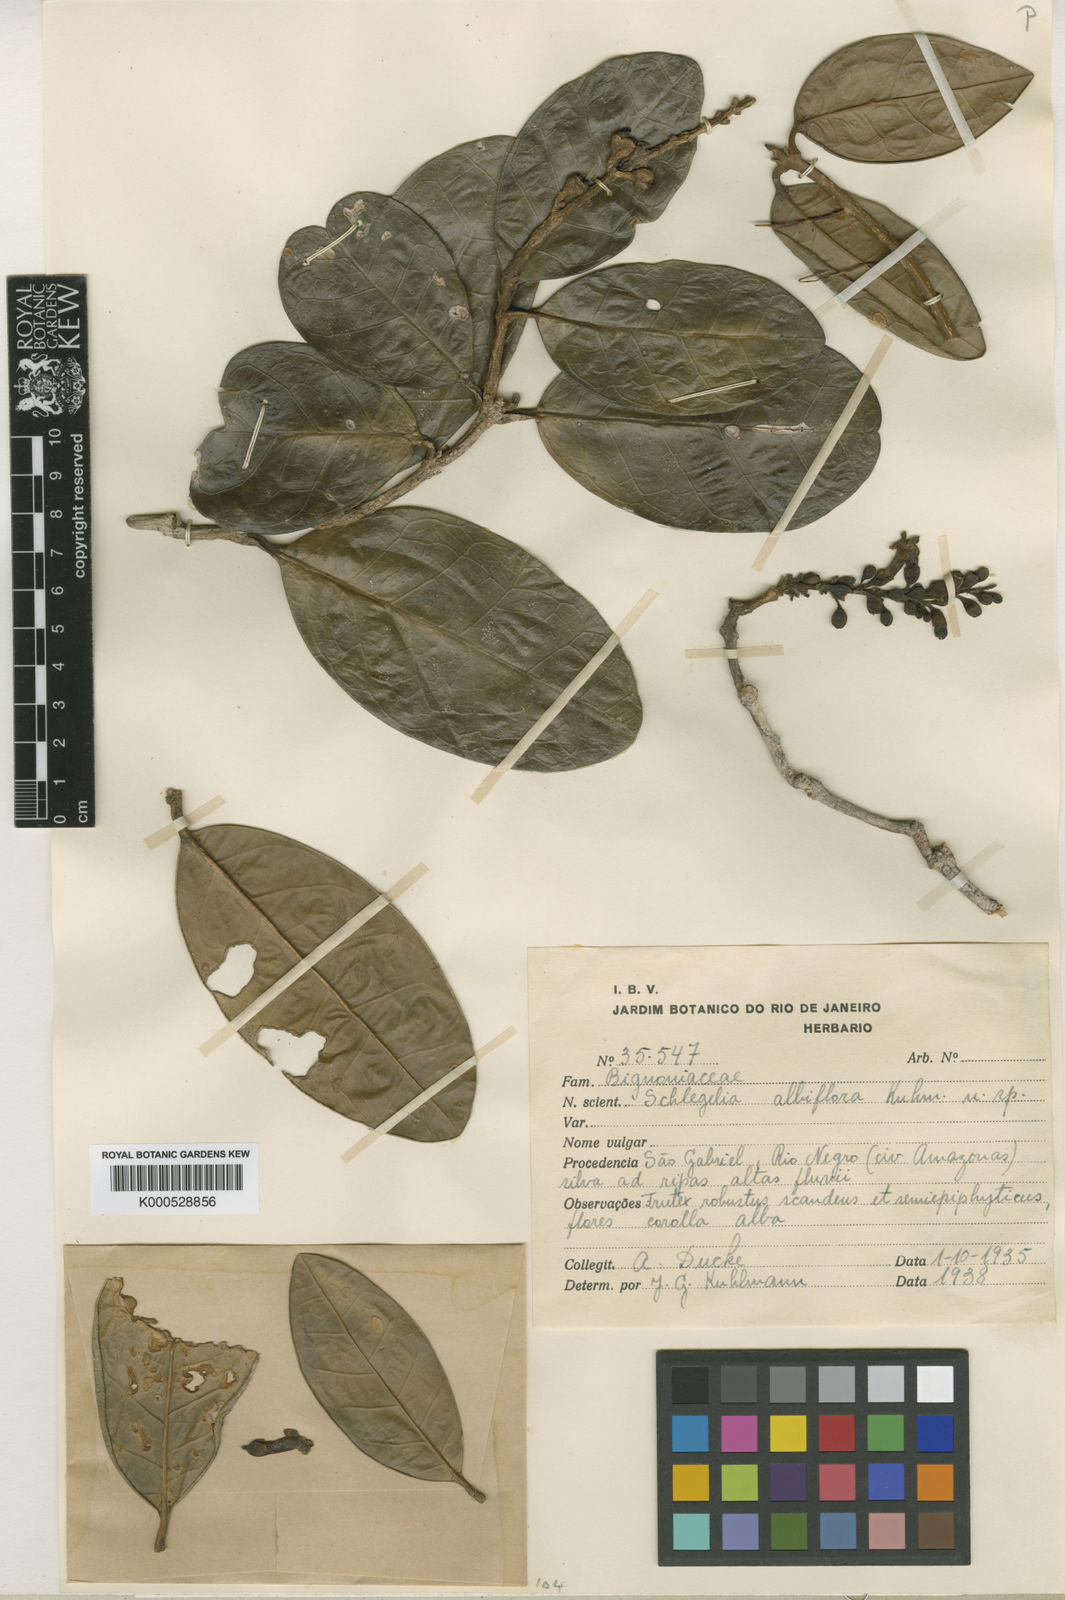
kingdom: Plantae
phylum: Tracheophyta
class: Magnoliopsida
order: Lamiales
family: Schlegeliaceae
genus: Schlegelia
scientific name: Schlegelia scandens
